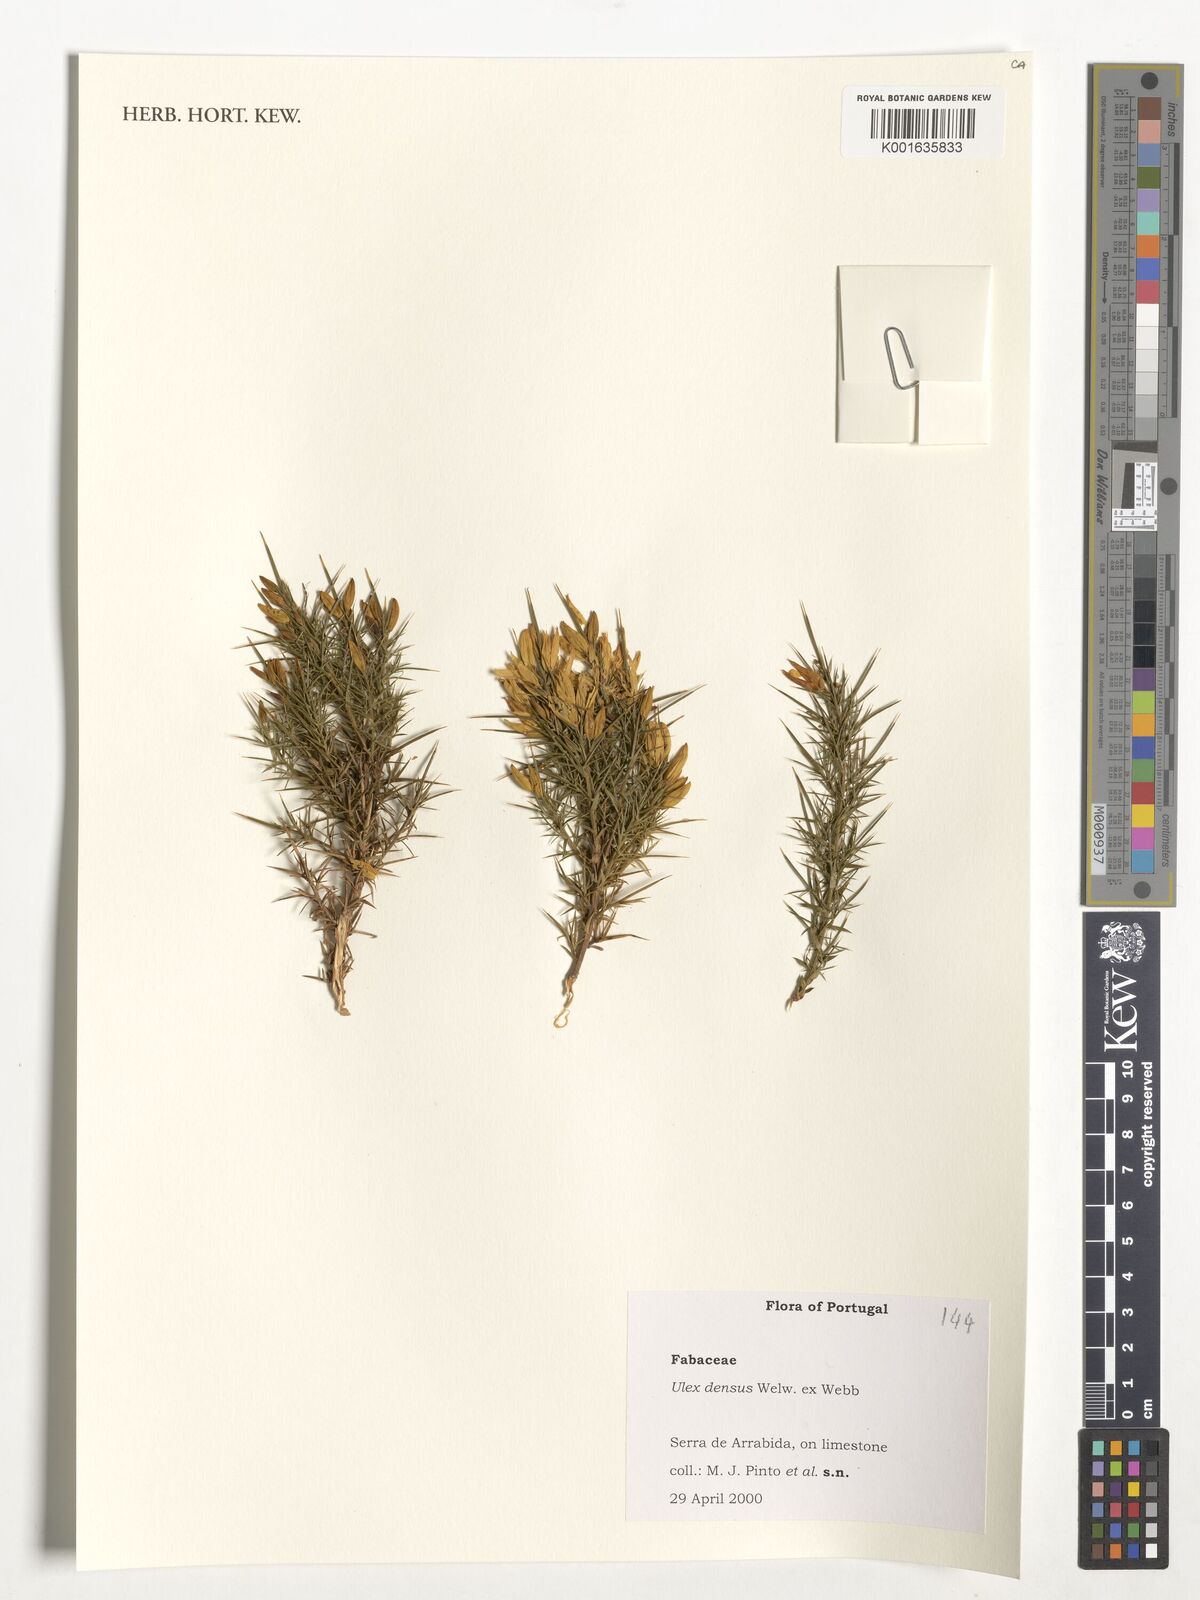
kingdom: Plantae
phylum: Tracheophyta
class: Magnoliopsida
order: Fabales
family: Fabaceae
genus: Ulex
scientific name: Ulex densus
